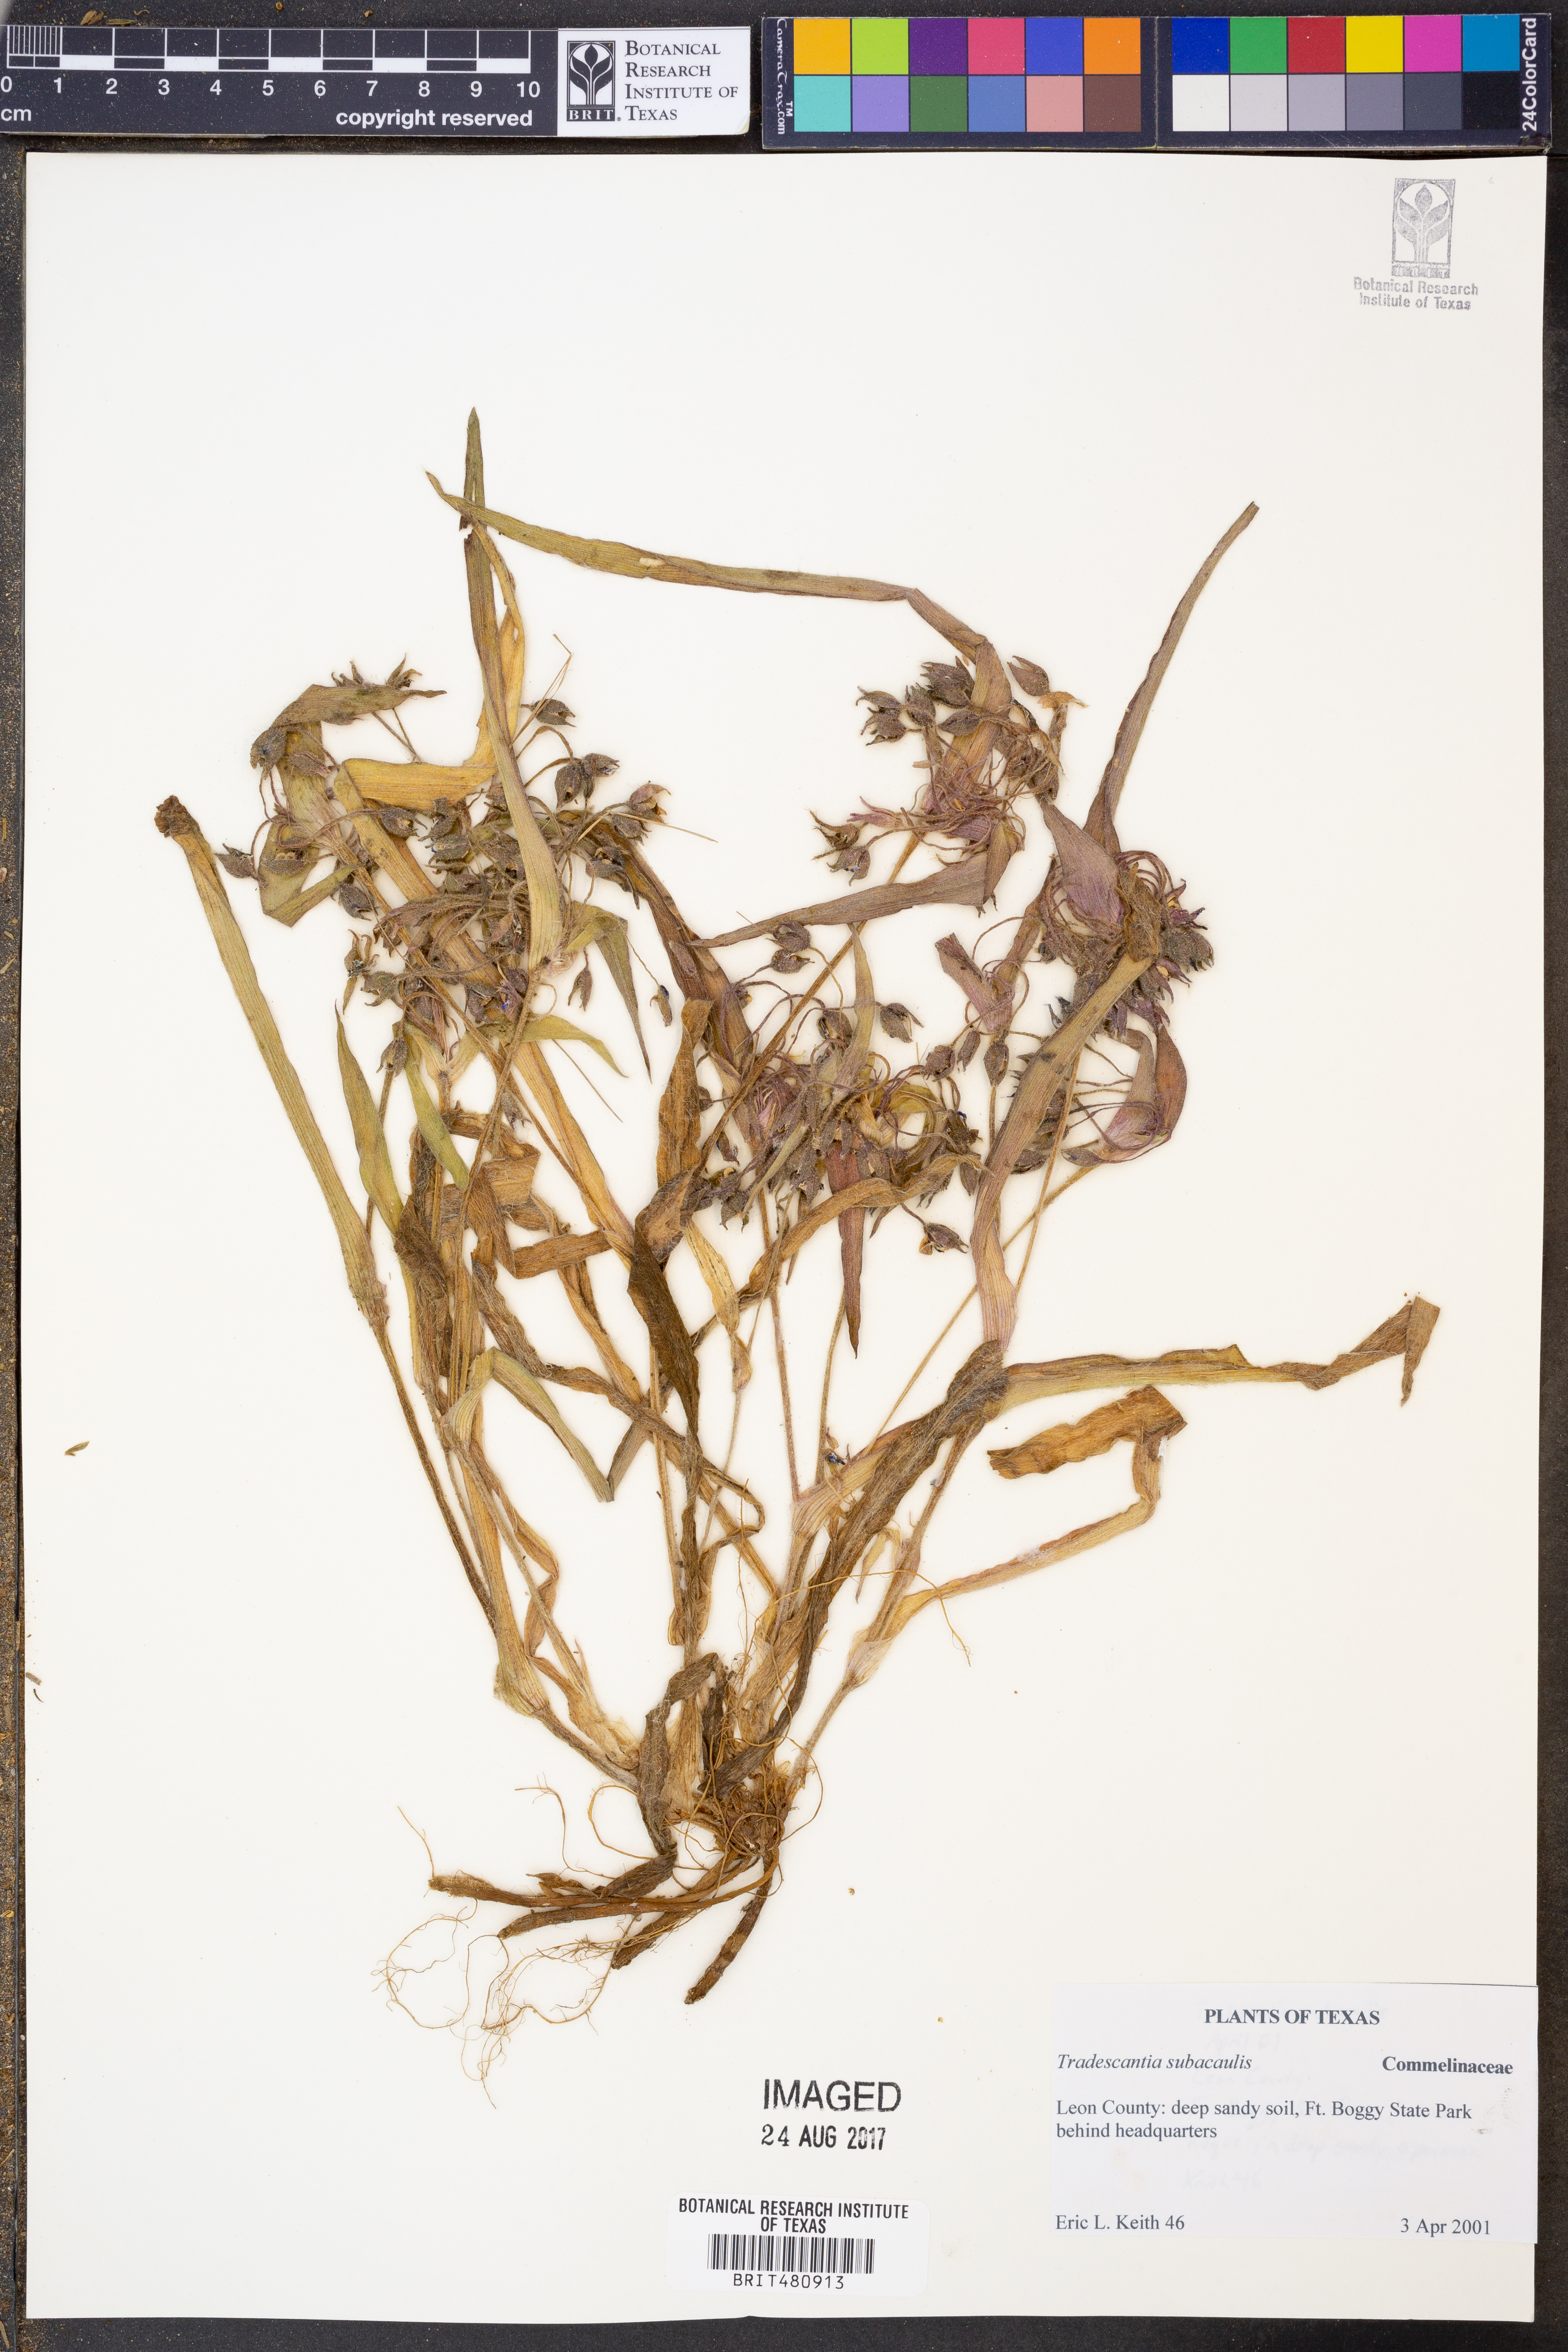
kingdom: Plantae
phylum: Tracheophyta
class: Liliopsida
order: Commelinales
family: Commelinaceae
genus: Tradescantia
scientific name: Tradescantia subacaulis
